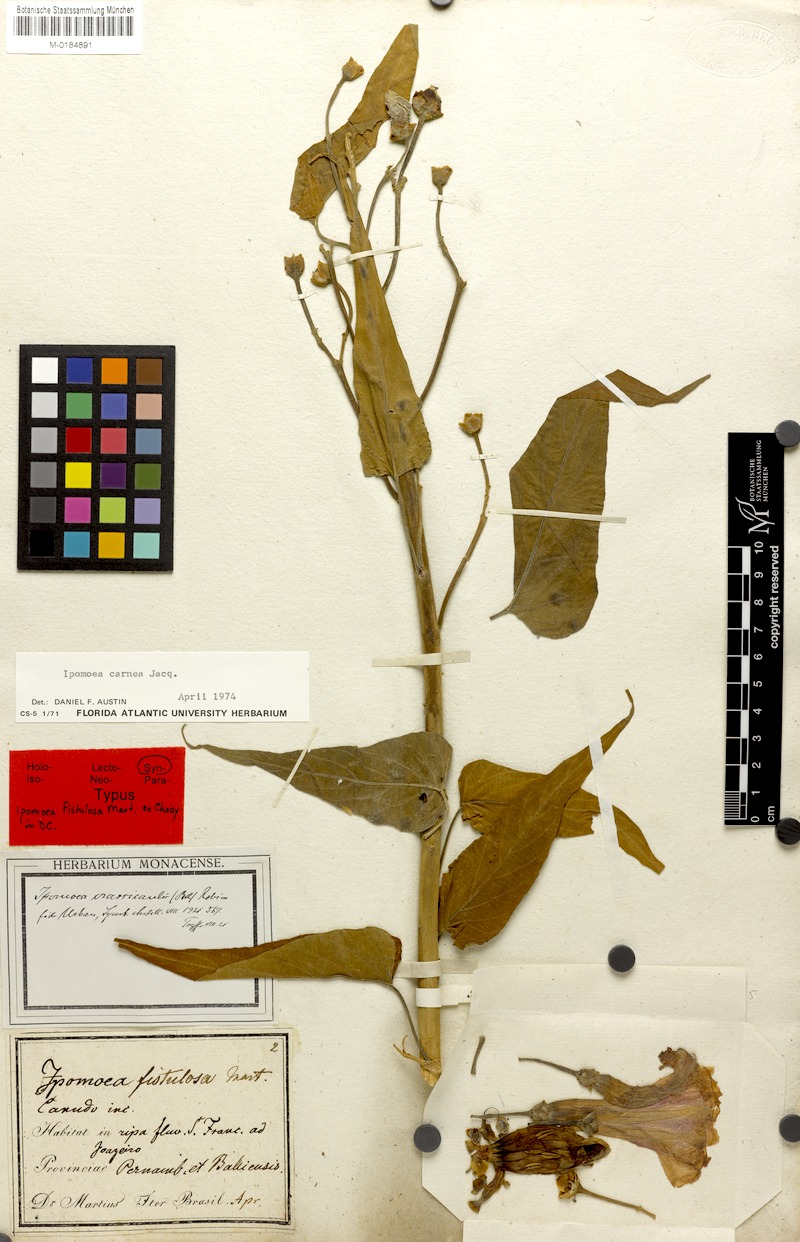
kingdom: Plantae
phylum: Tracheophyta
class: Magnoliopsida
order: Solanales
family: Convolvulaceae
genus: Ipomoea
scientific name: Ipomoea carnea
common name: Morning-glory
